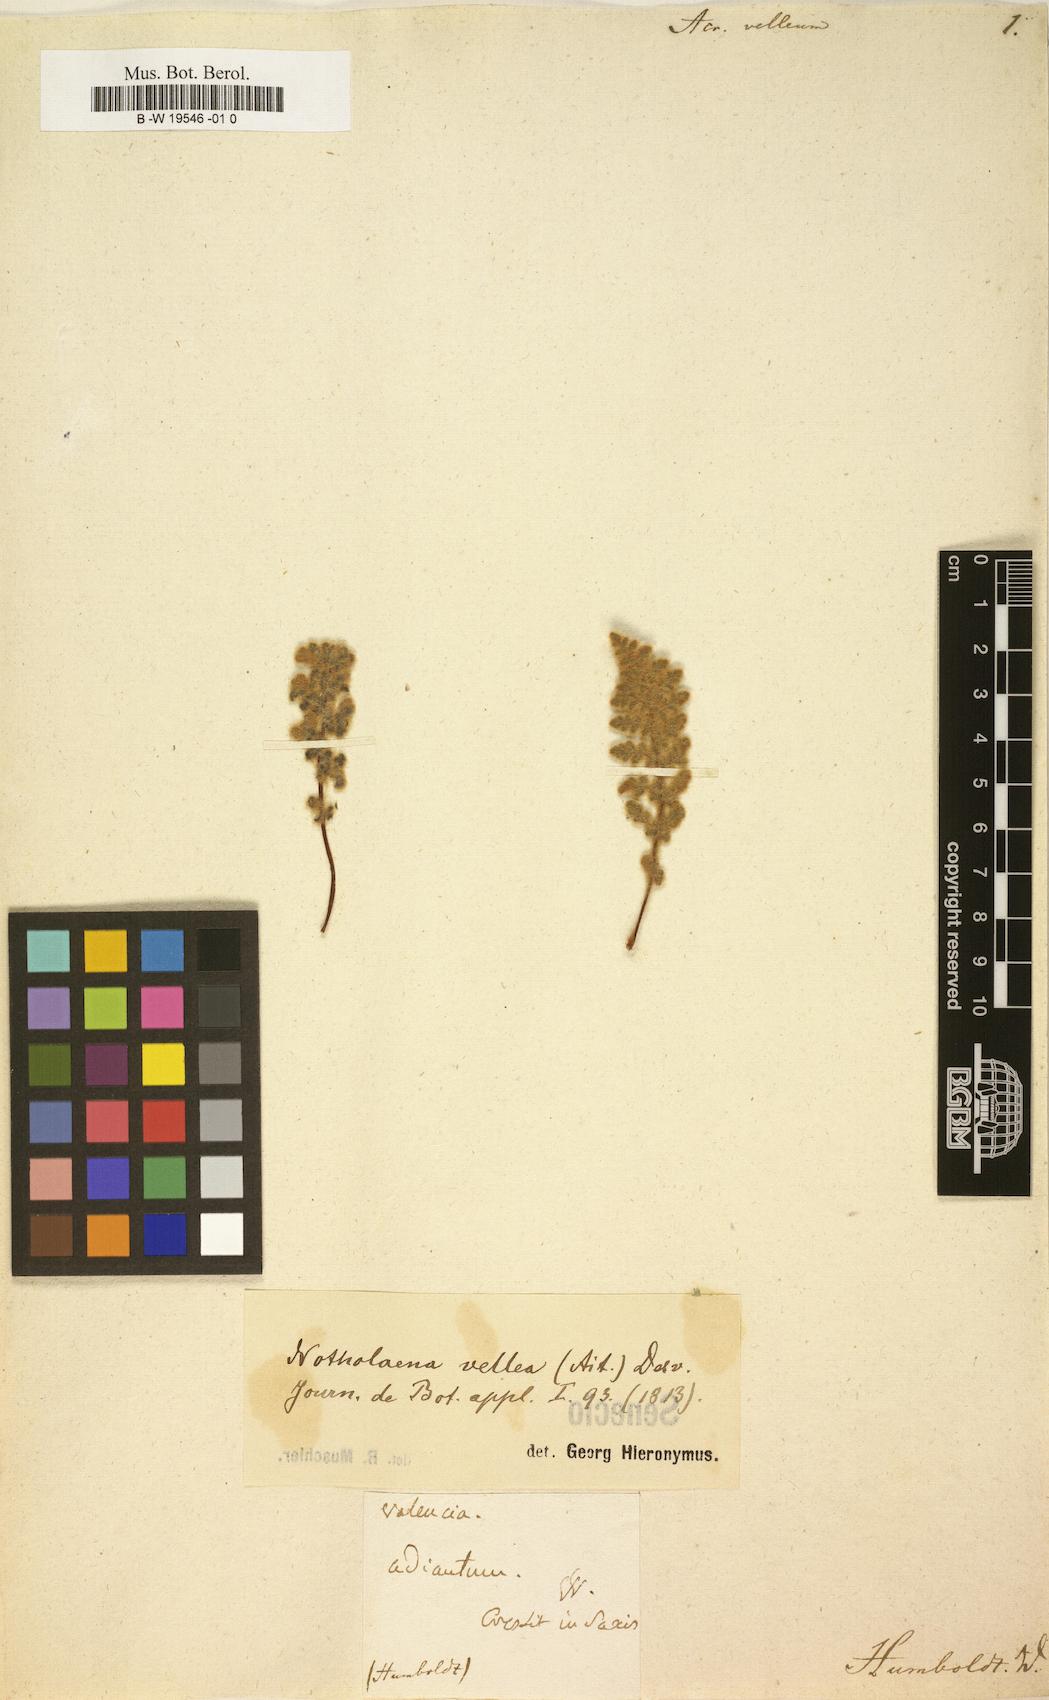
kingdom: Plantae
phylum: Tracheophyta
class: Polypodiopsida
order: Polypodiales
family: Pteridaceae
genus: Cosentinia
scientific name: Cosentinia vellea
